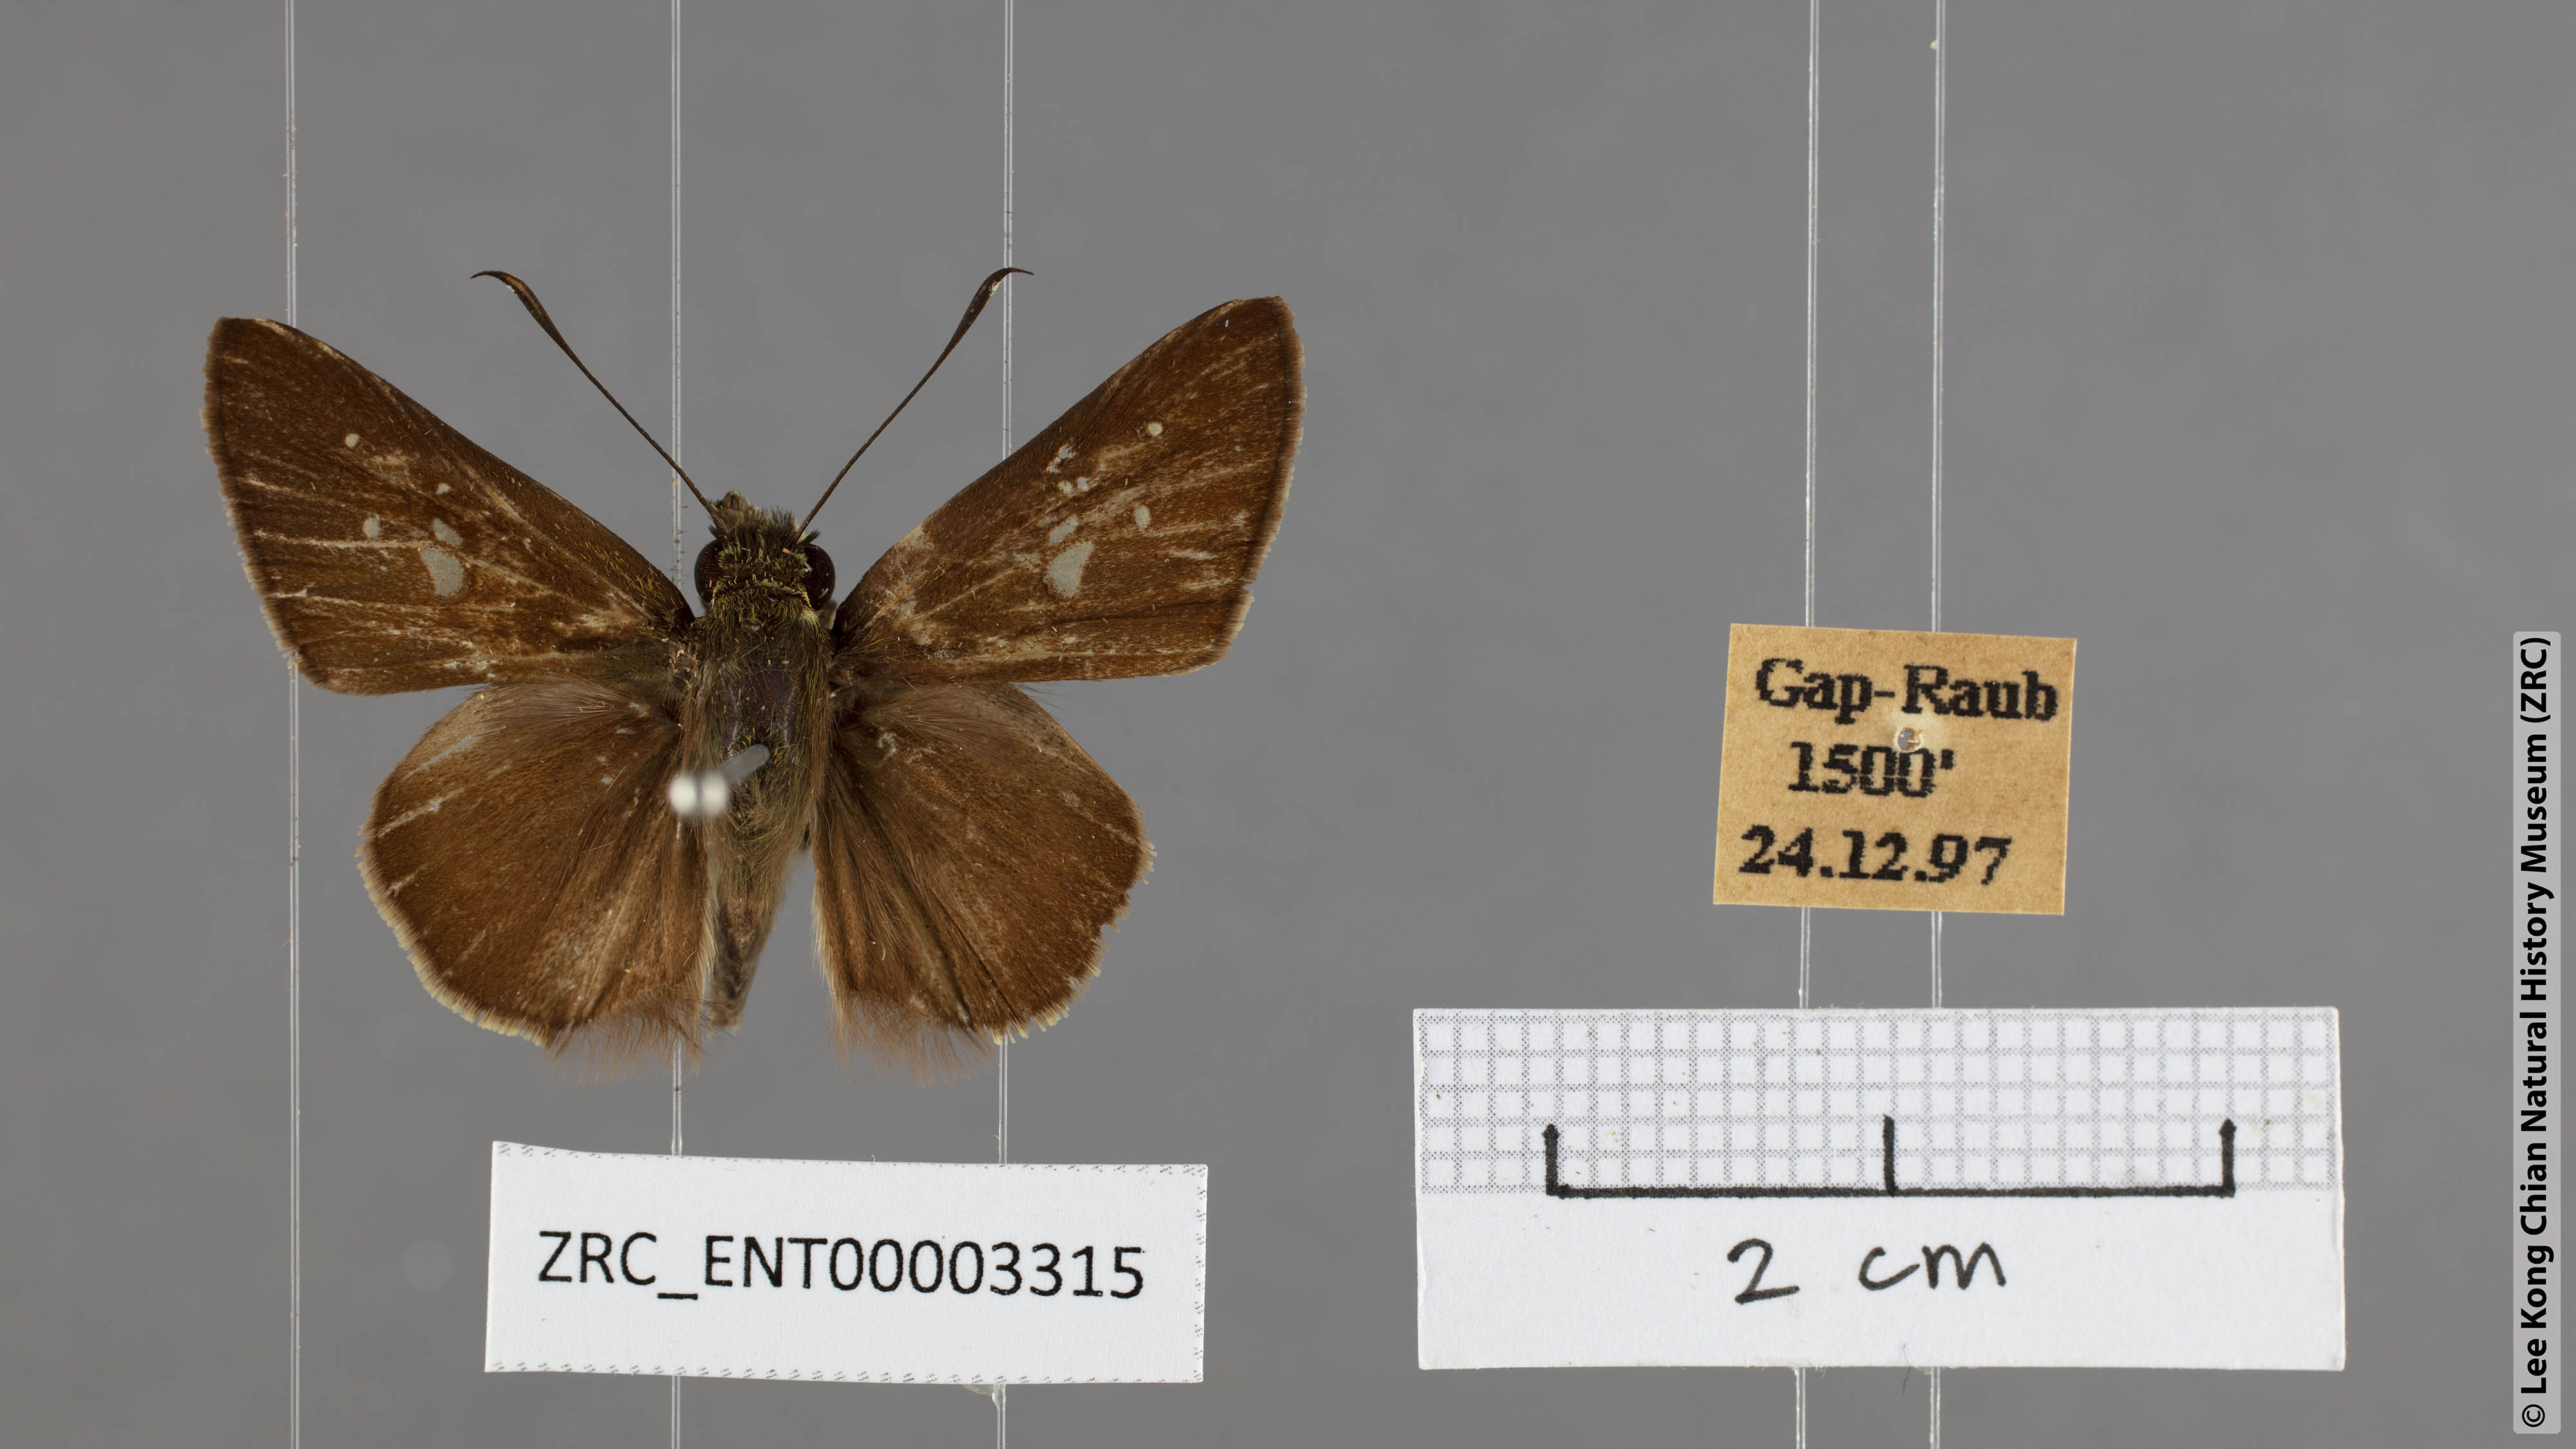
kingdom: Animalia
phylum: Arthropoda
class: Insecta
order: Lepidoptera
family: Hesperiidae
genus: Isma
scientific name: Isma protoclea
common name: Bicolour long-horned flitter
